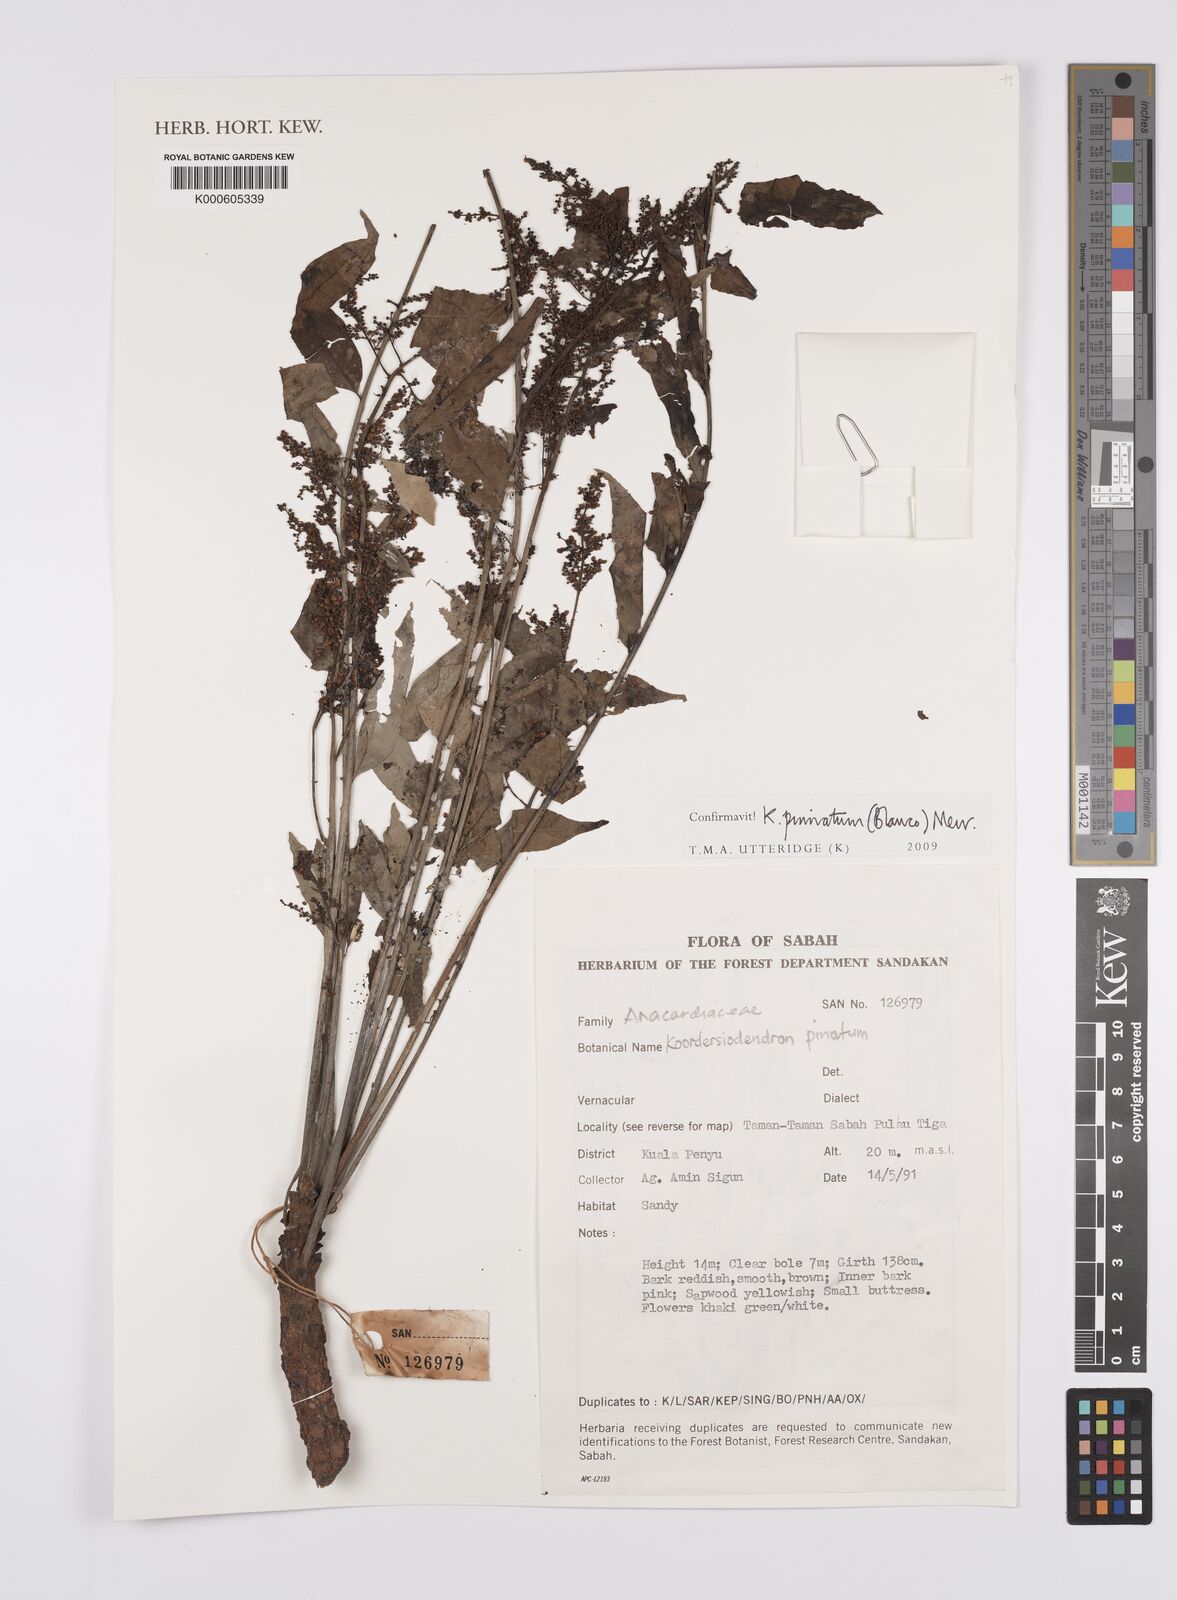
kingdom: Plantae
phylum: Tracheophyta
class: Magnoliopsida
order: Sapindales
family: Anacardiaceae
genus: Koordersiodendron
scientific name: Koordersiodendron pinnatum
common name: Ranggu
